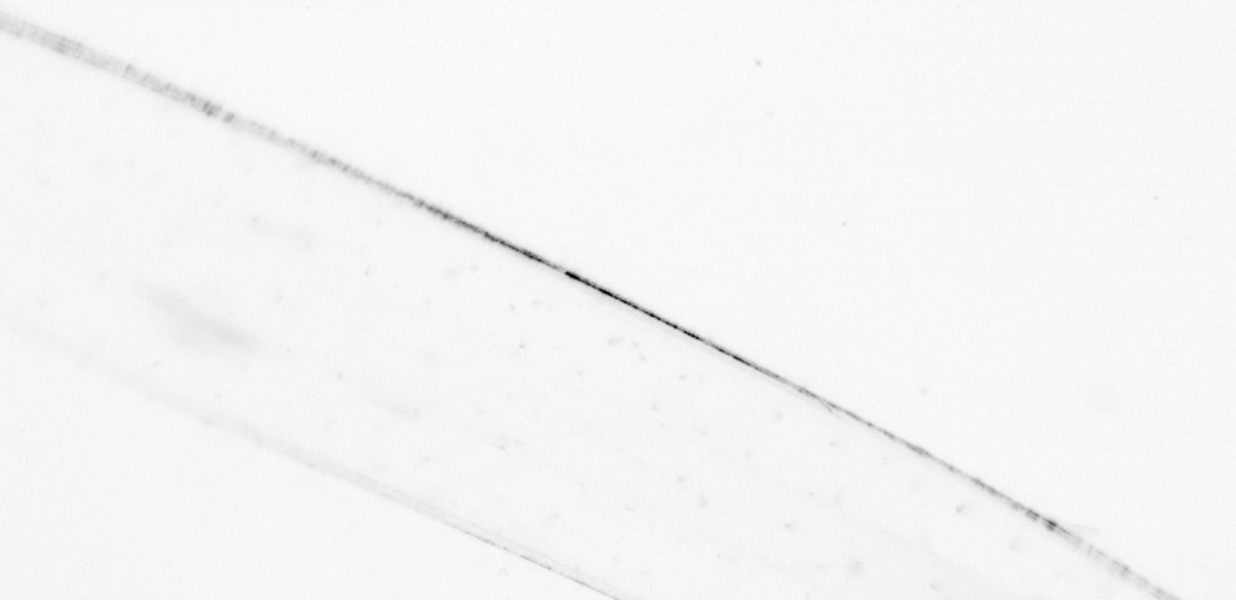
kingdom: Animalia
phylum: Chaetognatha
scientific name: Chaetognatha
